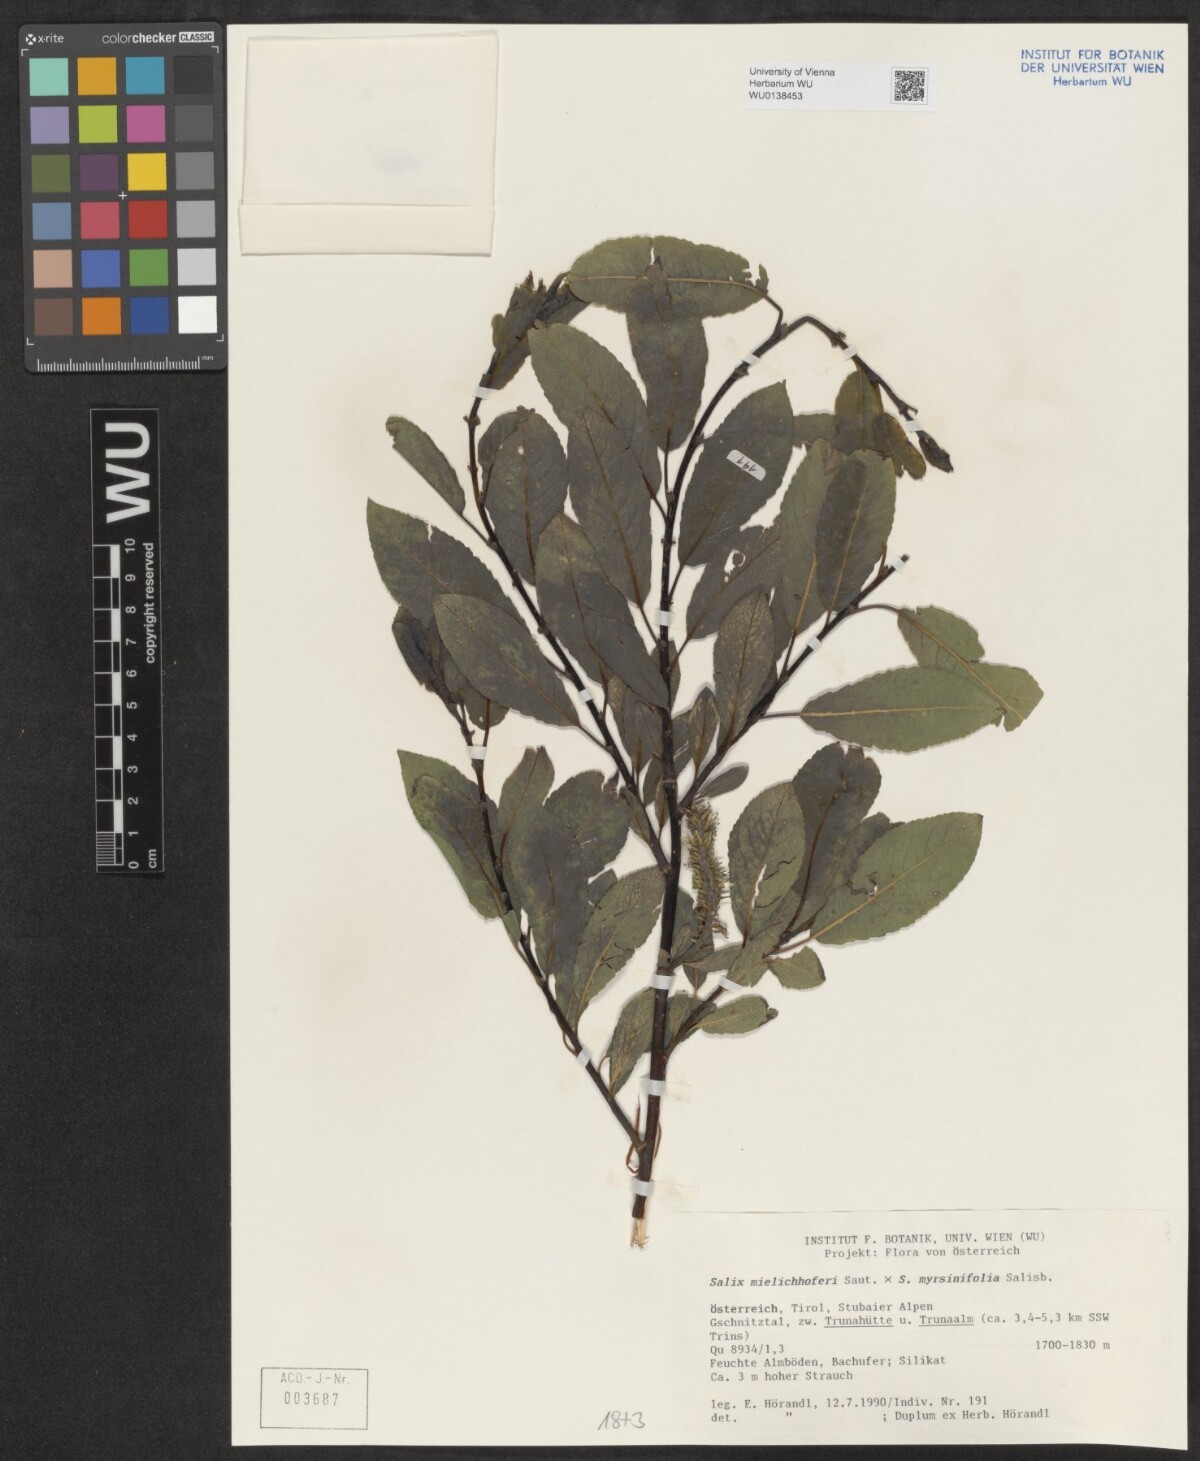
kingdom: Plantae
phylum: Tracheophyta
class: Magnoliopsida
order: Malpighiales
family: Salicaceae
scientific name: Salicaceae
